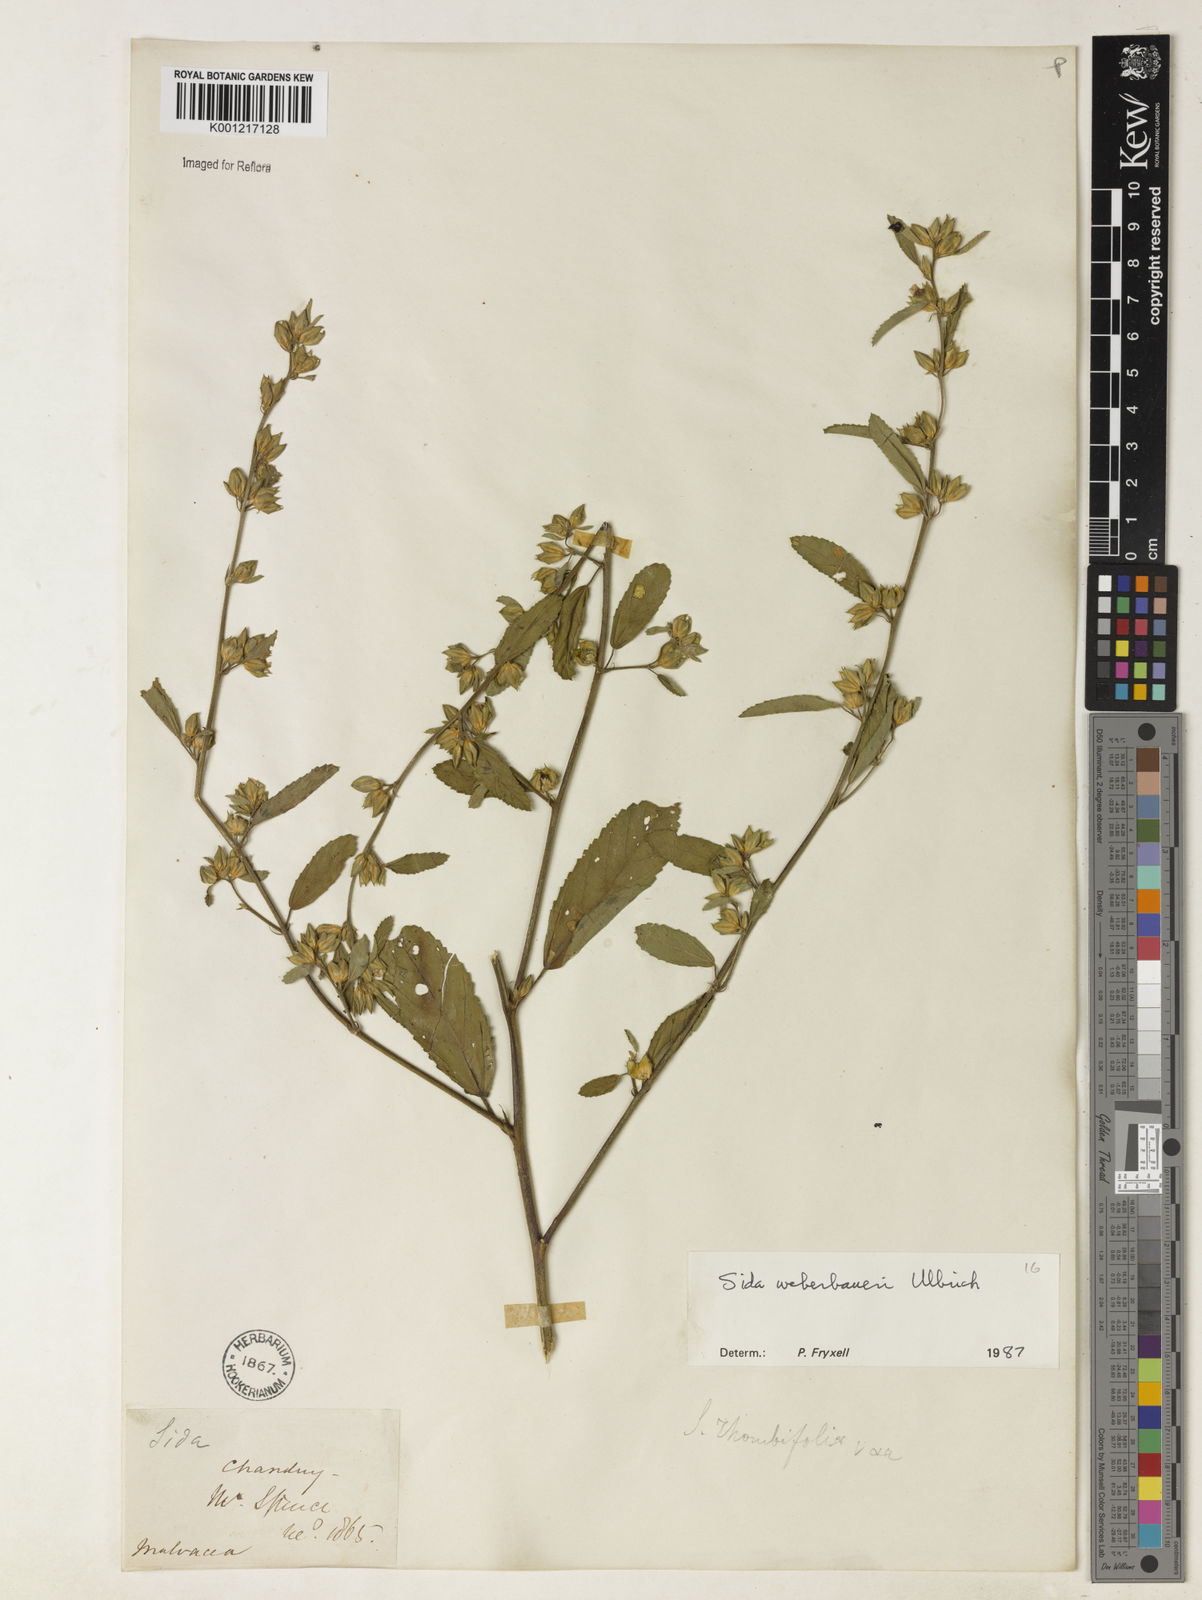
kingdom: Plantae
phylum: Tracheophyta
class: Magnoliopsida
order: Malvales
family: Malvaceae
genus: Sida
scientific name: Sida weberbaueri
